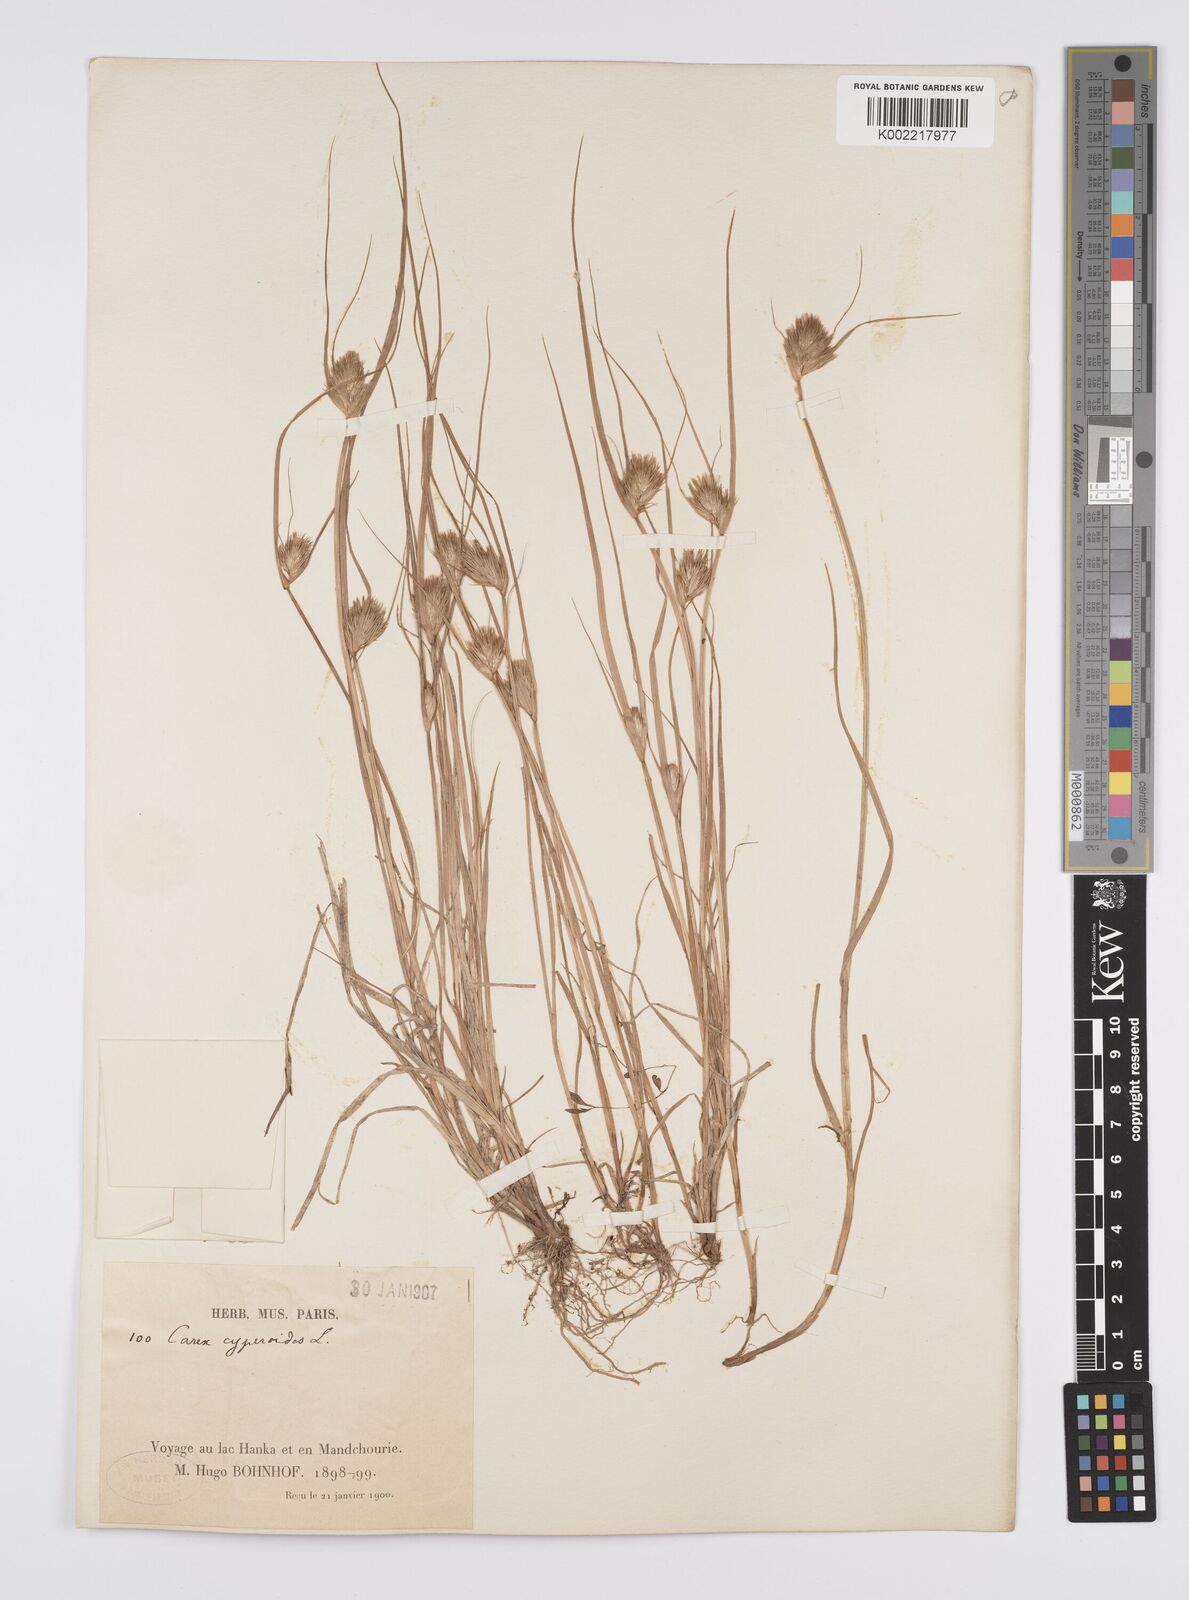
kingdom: Plantae
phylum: Tracheophyta
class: Liliopsida
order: Poales
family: Cyperaceae
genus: Carex
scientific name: Carex bohemica
